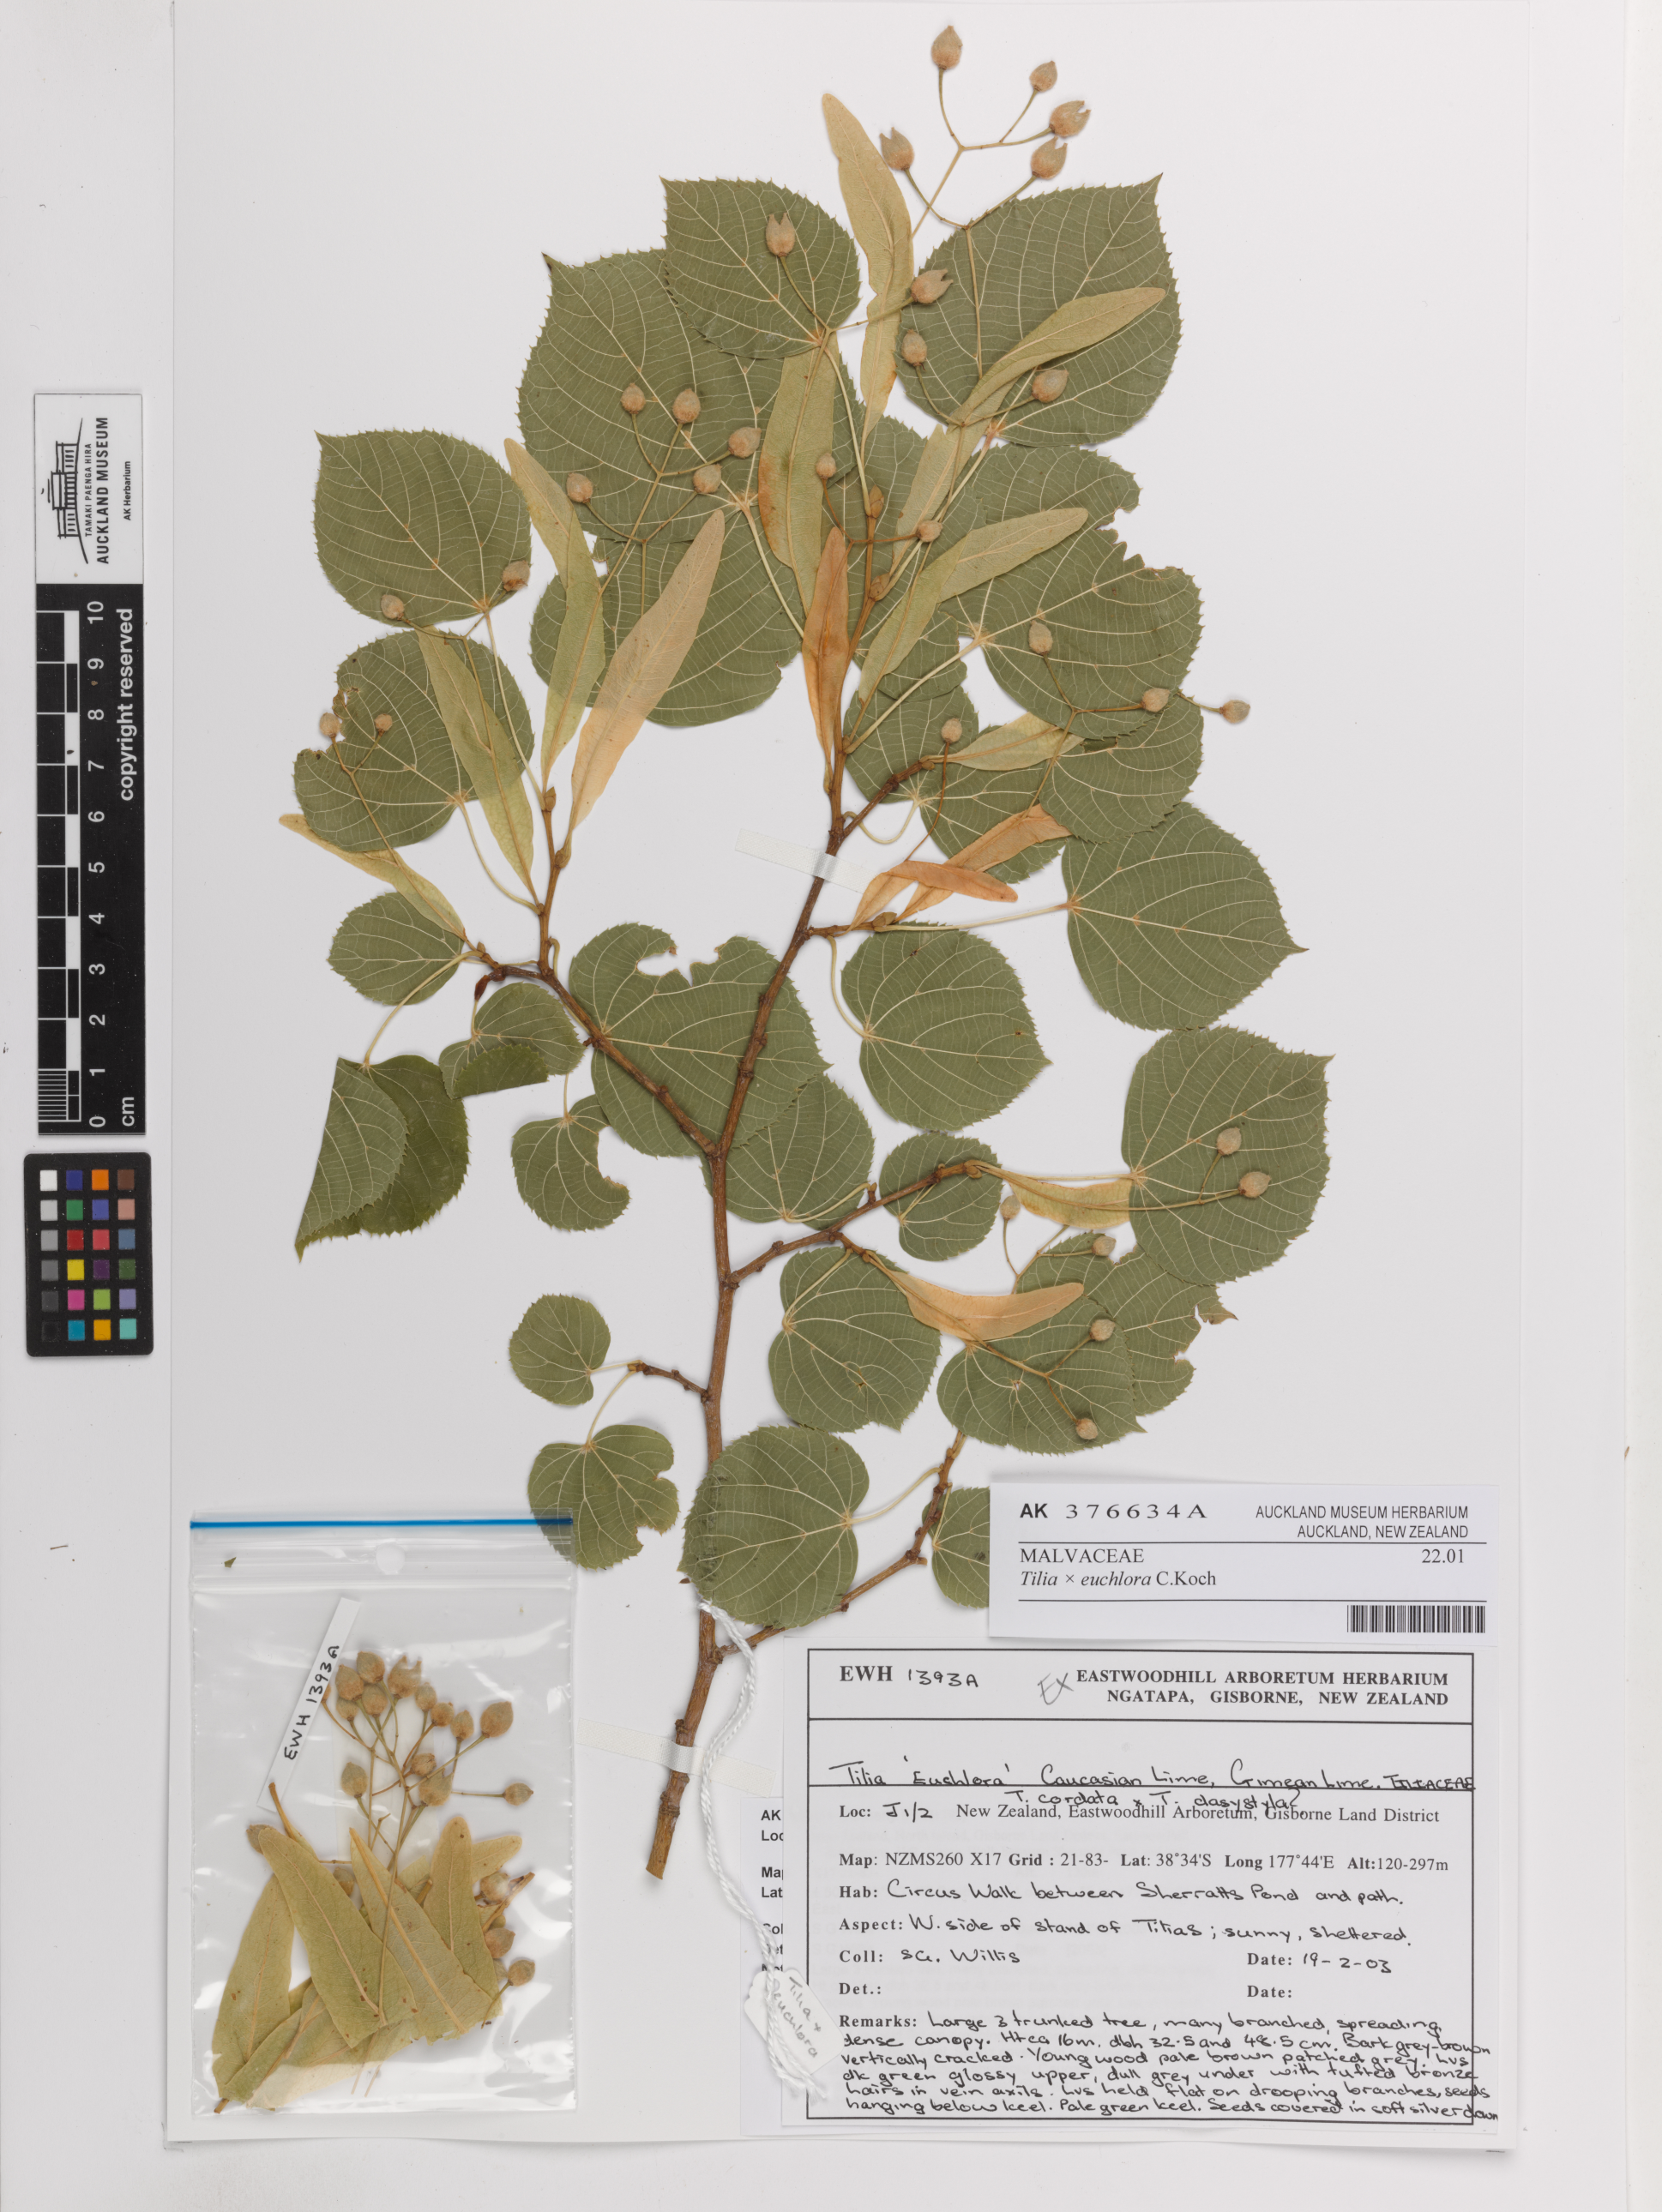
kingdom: Plantae
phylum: Tracheophyta
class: Magnoliopsida
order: Malvales
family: Malvaceae
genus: Tilia
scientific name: Tilia euchlora
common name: Caucasian lime
